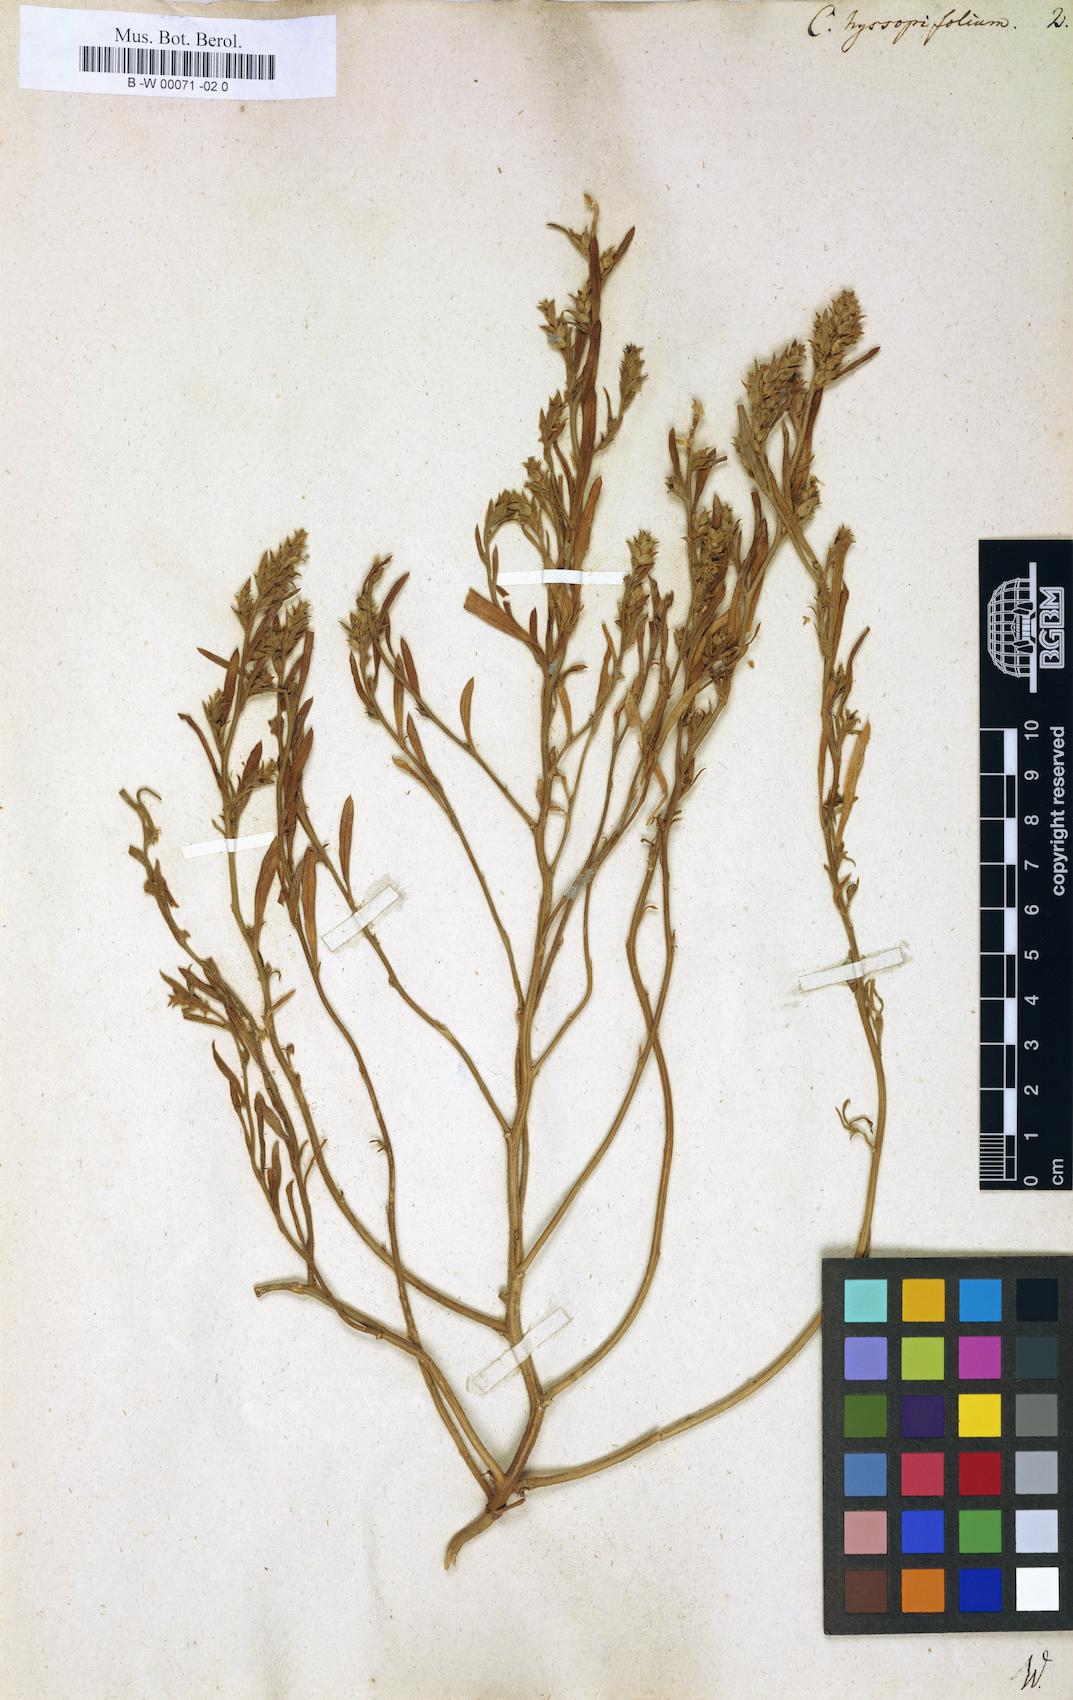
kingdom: Plantae
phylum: Tracheophyta
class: Magnoliopsida
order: Caryophyllales
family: Amaranthaceae
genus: Corispermum
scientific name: Corispermum hyssopifolium
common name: Bugseed
